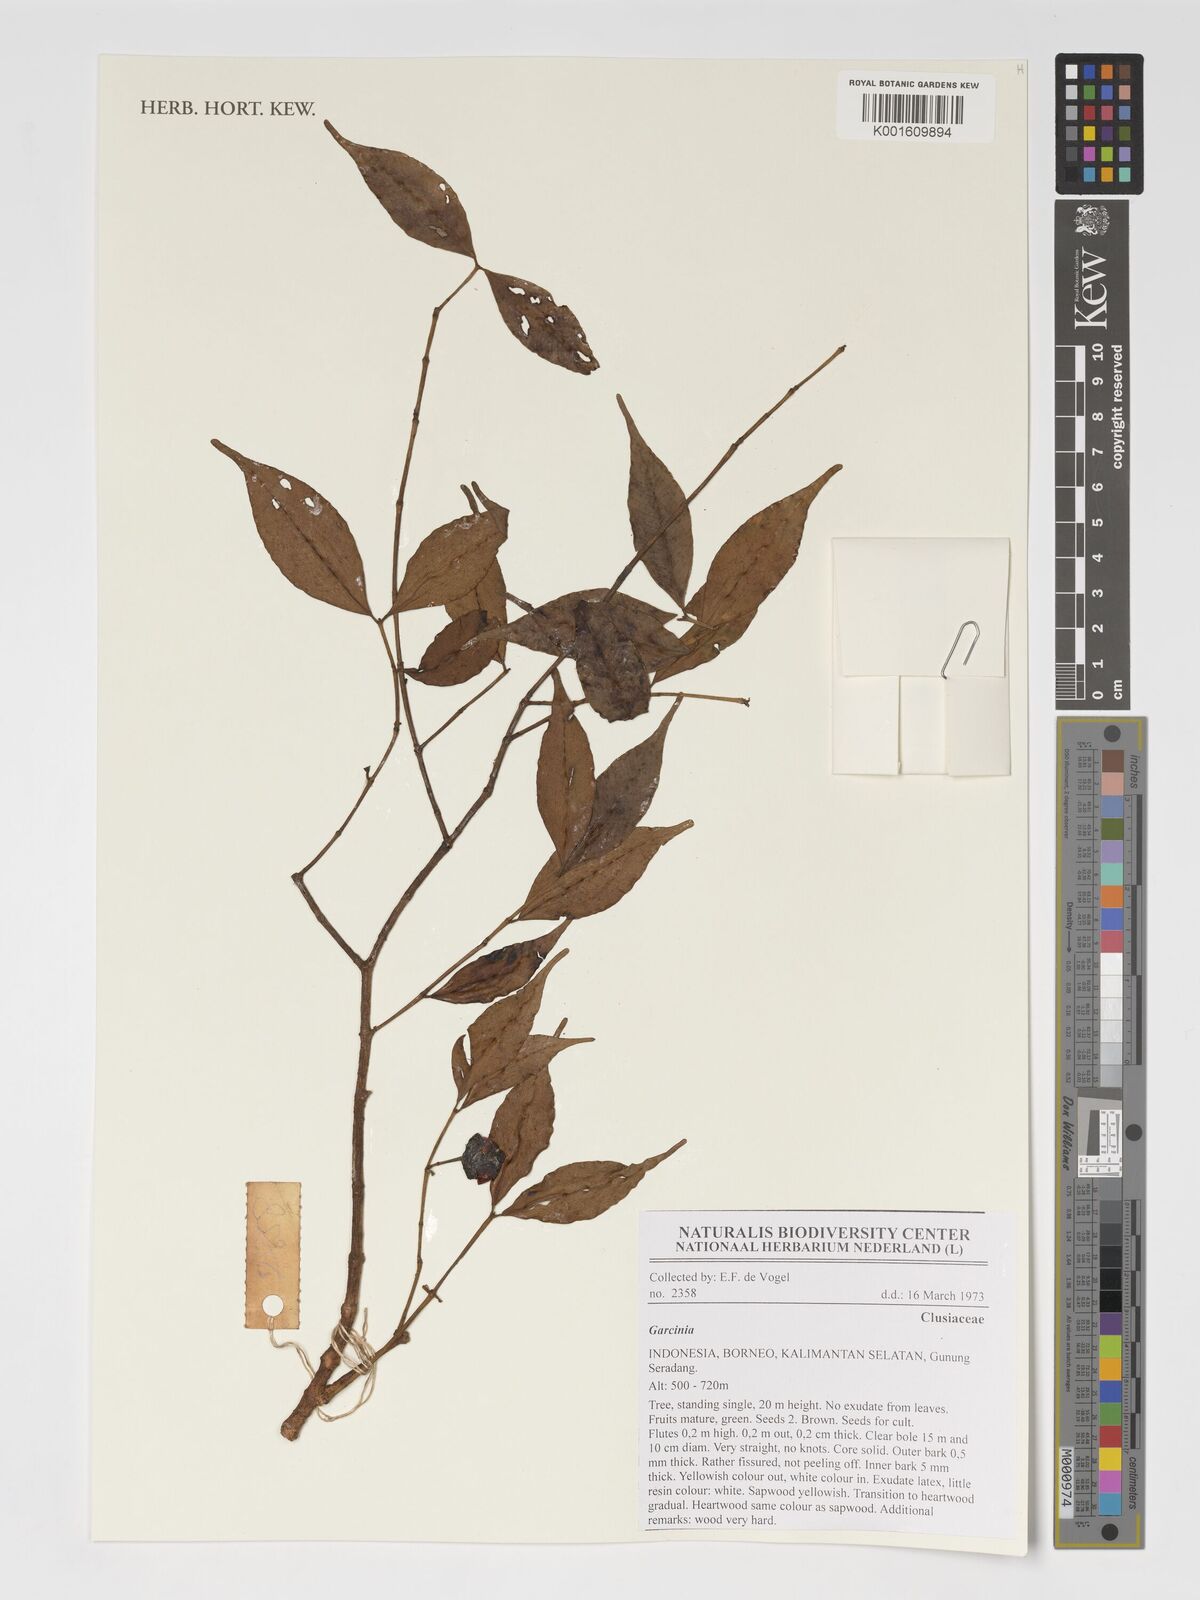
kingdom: Plantae
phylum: Tracheophyta
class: Magnoliopsida
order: Malpighiales
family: Clusiaceae
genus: Garcinia
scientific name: Garcinia
